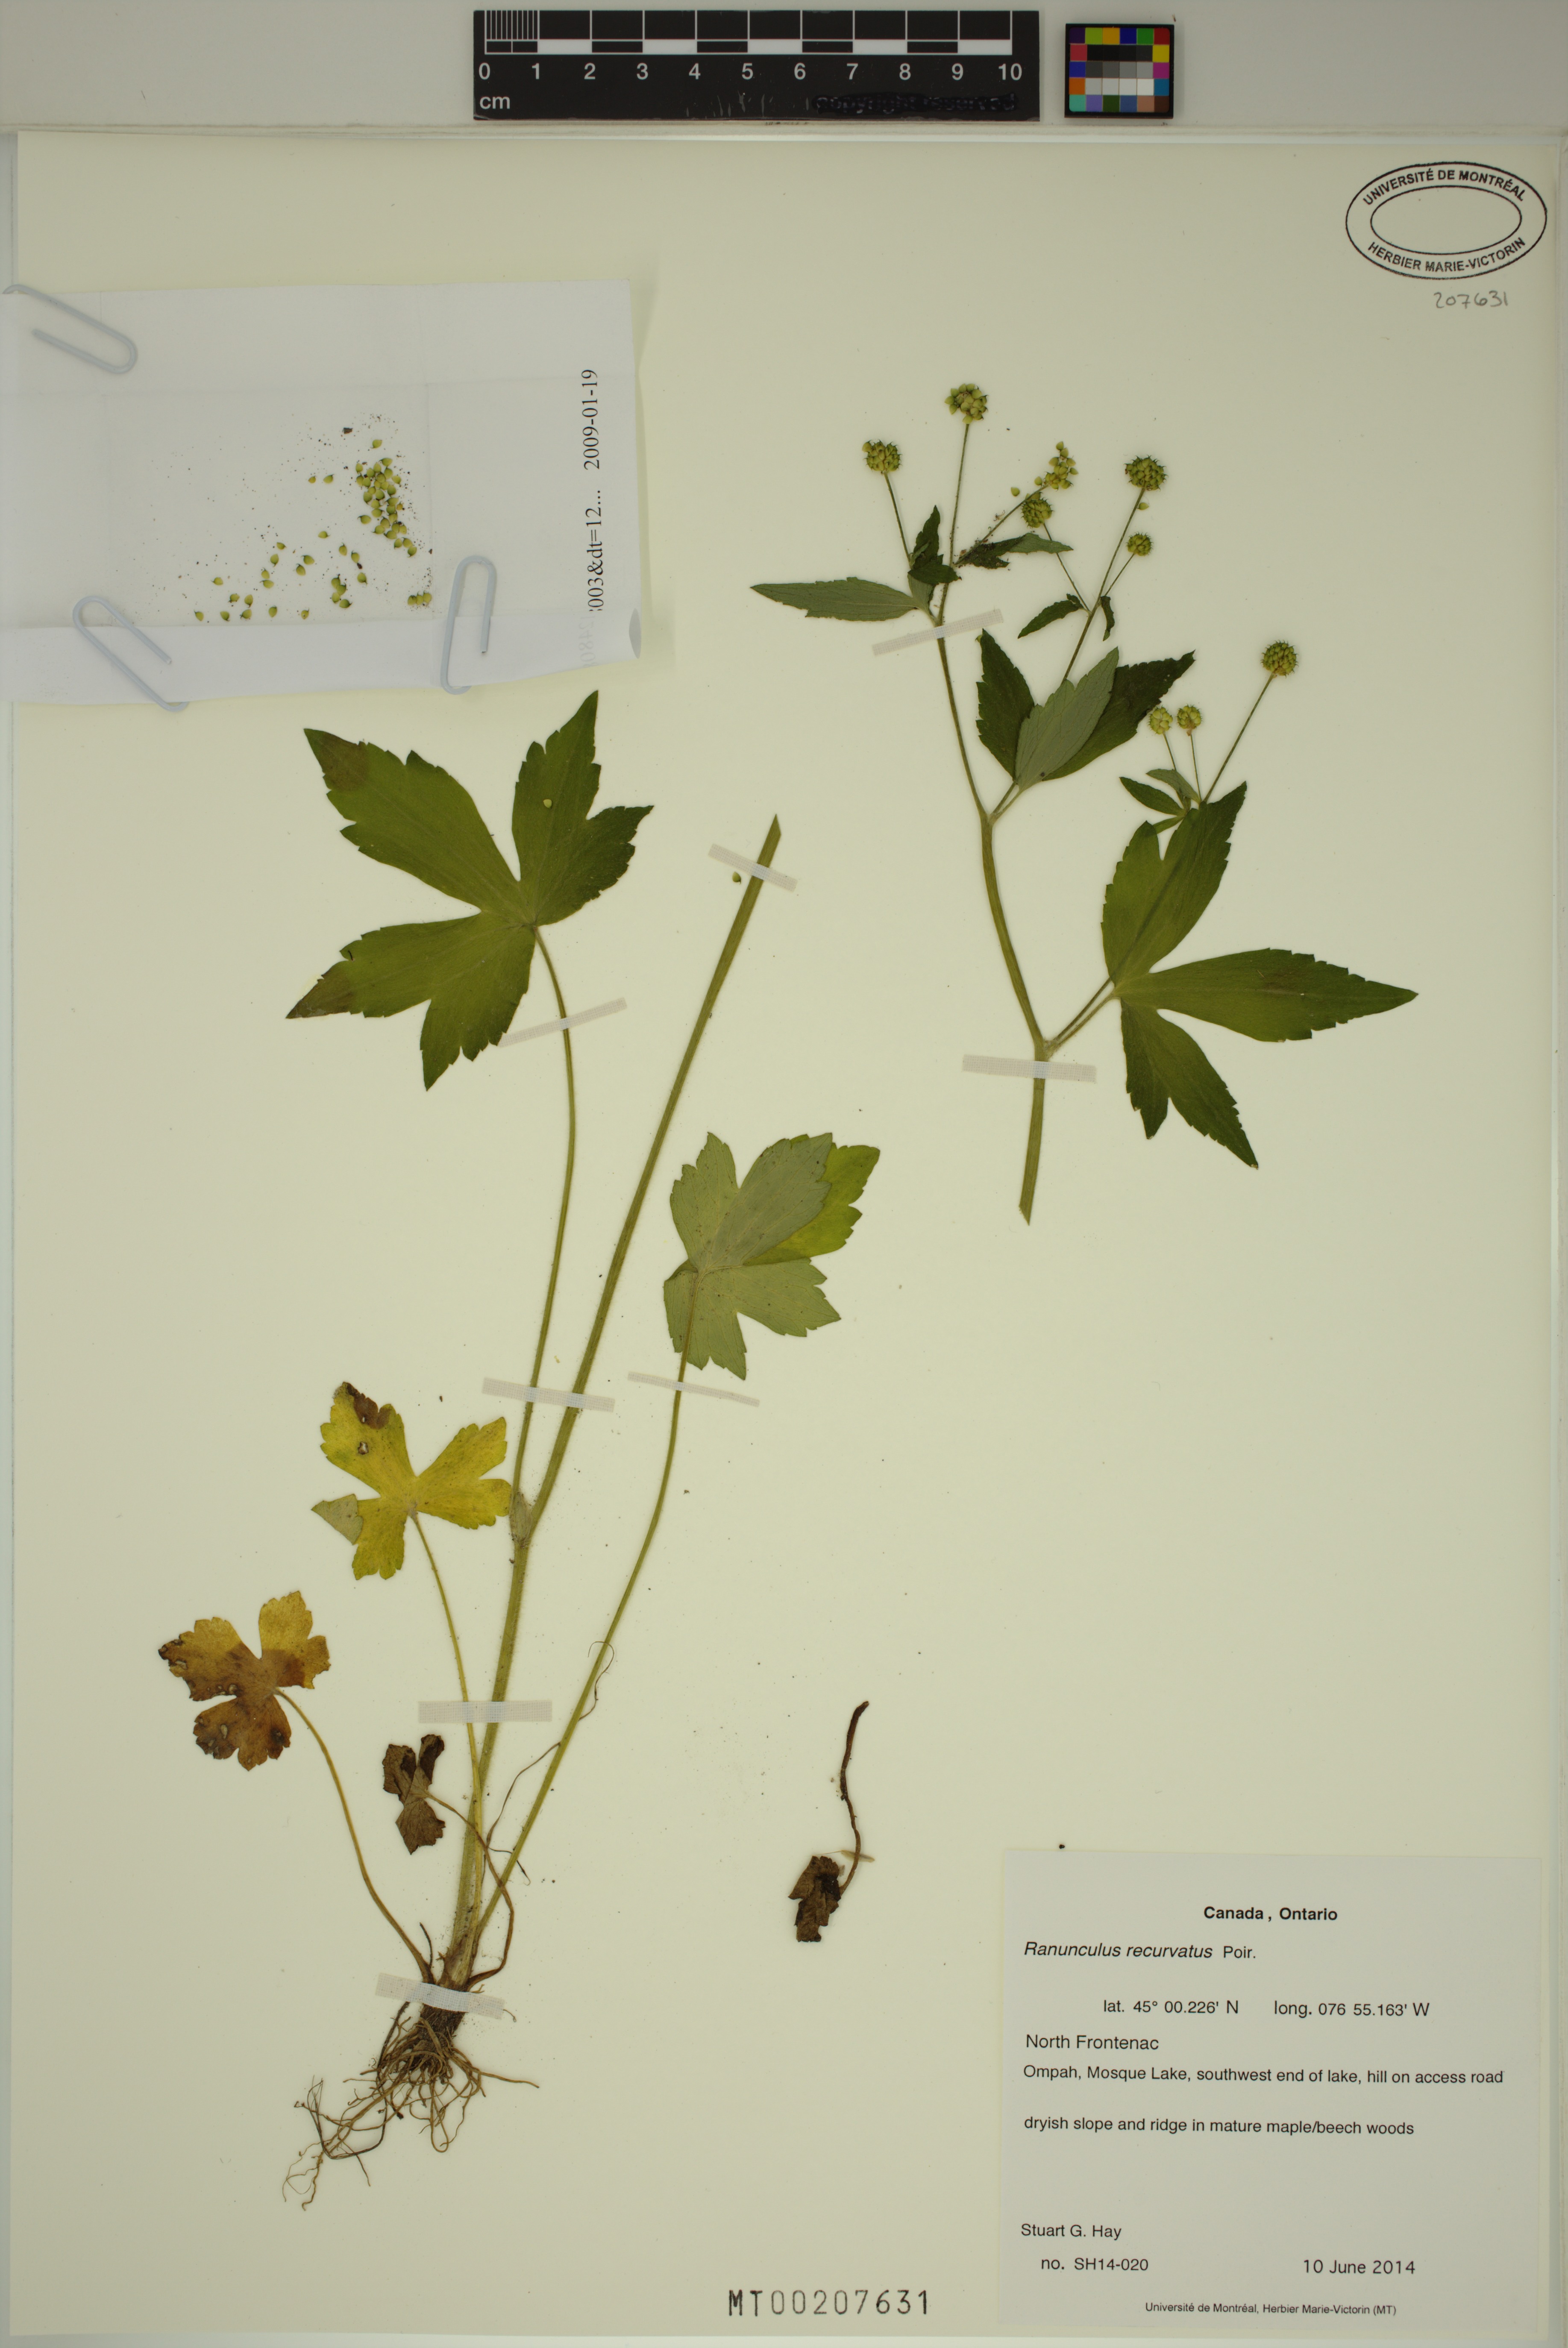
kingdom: Plantae
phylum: Tracheophyta
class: Magnoliopsida
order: Ranunculales
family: Ranunculaceae
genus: Ranunculus
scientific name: Ranunculus recurvatus
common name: Blisterwort
